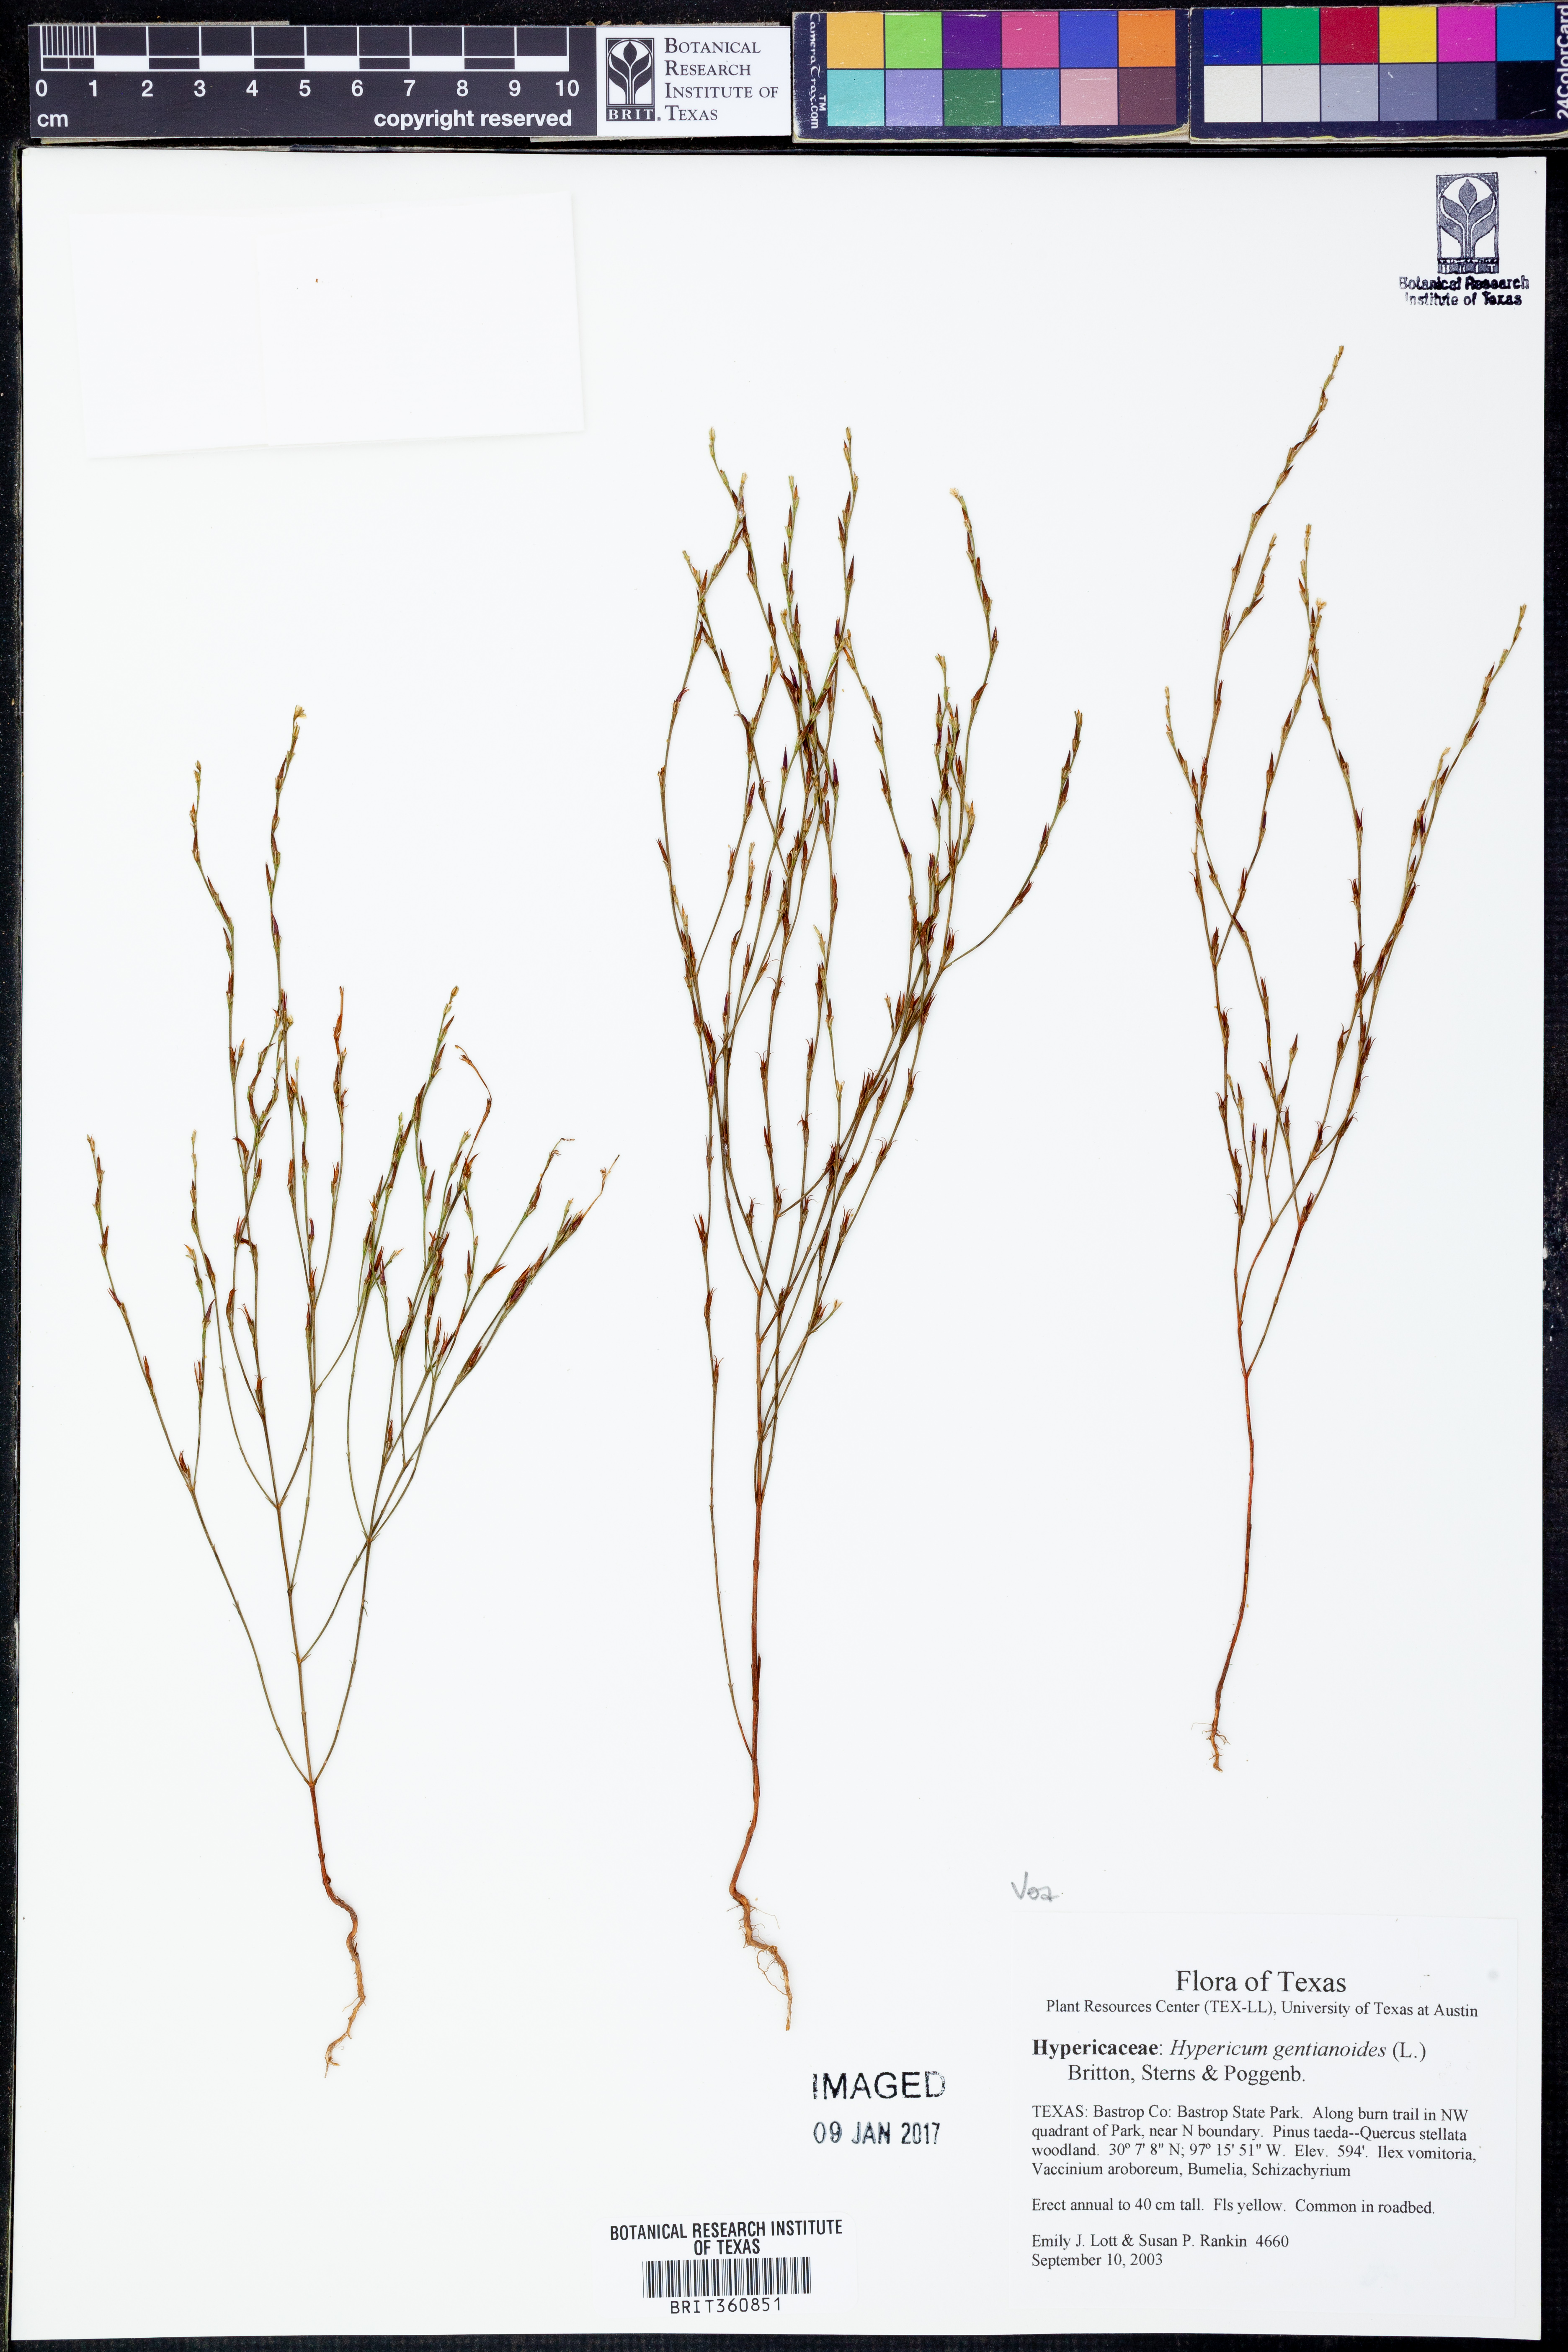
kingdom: Plantae
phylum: Tracheophyta
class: Magnoliopsida
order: Malpighiales
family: Hypericaceae
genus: Hypericum
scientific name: Hypericum gentianoides
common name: Gentian-leaved st. john's-wort
